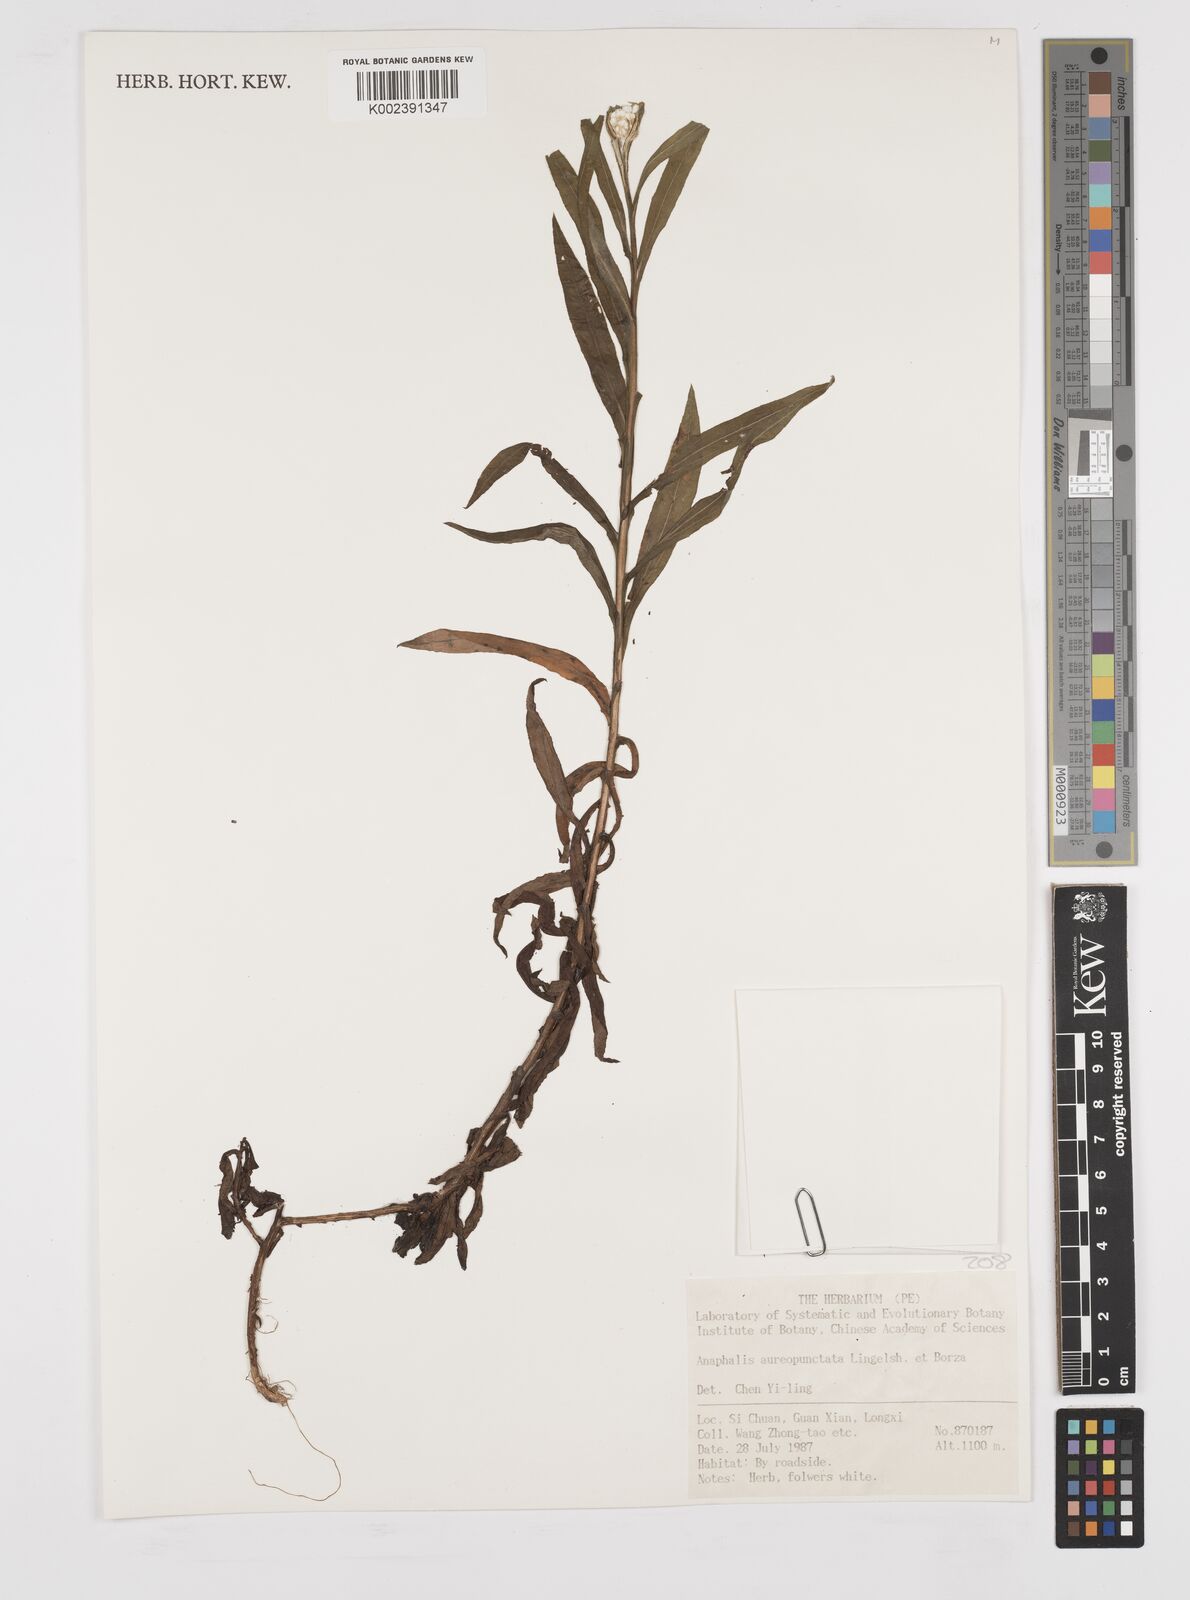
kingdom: Plantae
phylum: Tracheophyta
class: Magnoliopsida
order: Asterales
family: Asteraceae
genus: Anaphalis
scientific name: Anaphalis aureopunctata
